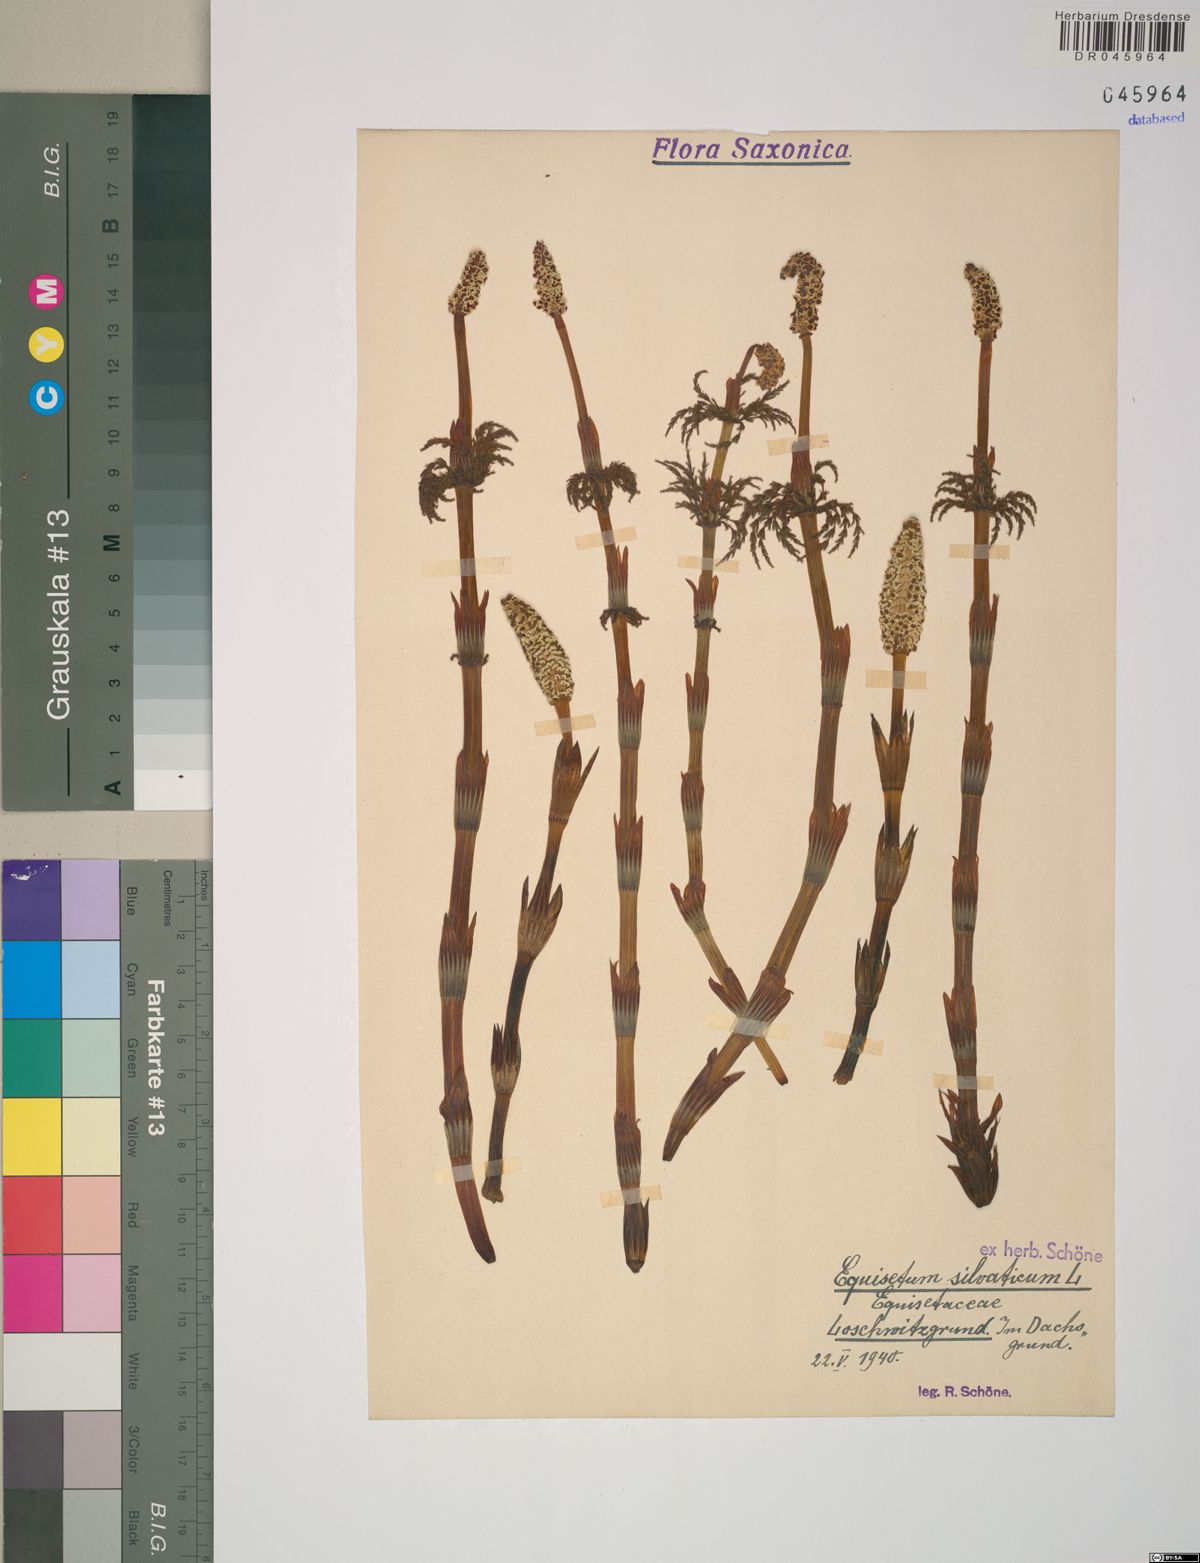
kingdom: Plantae
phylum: Tracheophyta
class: Polypodiopsida
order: Equisetales
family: Equisetaceae
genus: Equisetum
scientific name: Equisetum sylvaticum
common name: Wood horsetail
